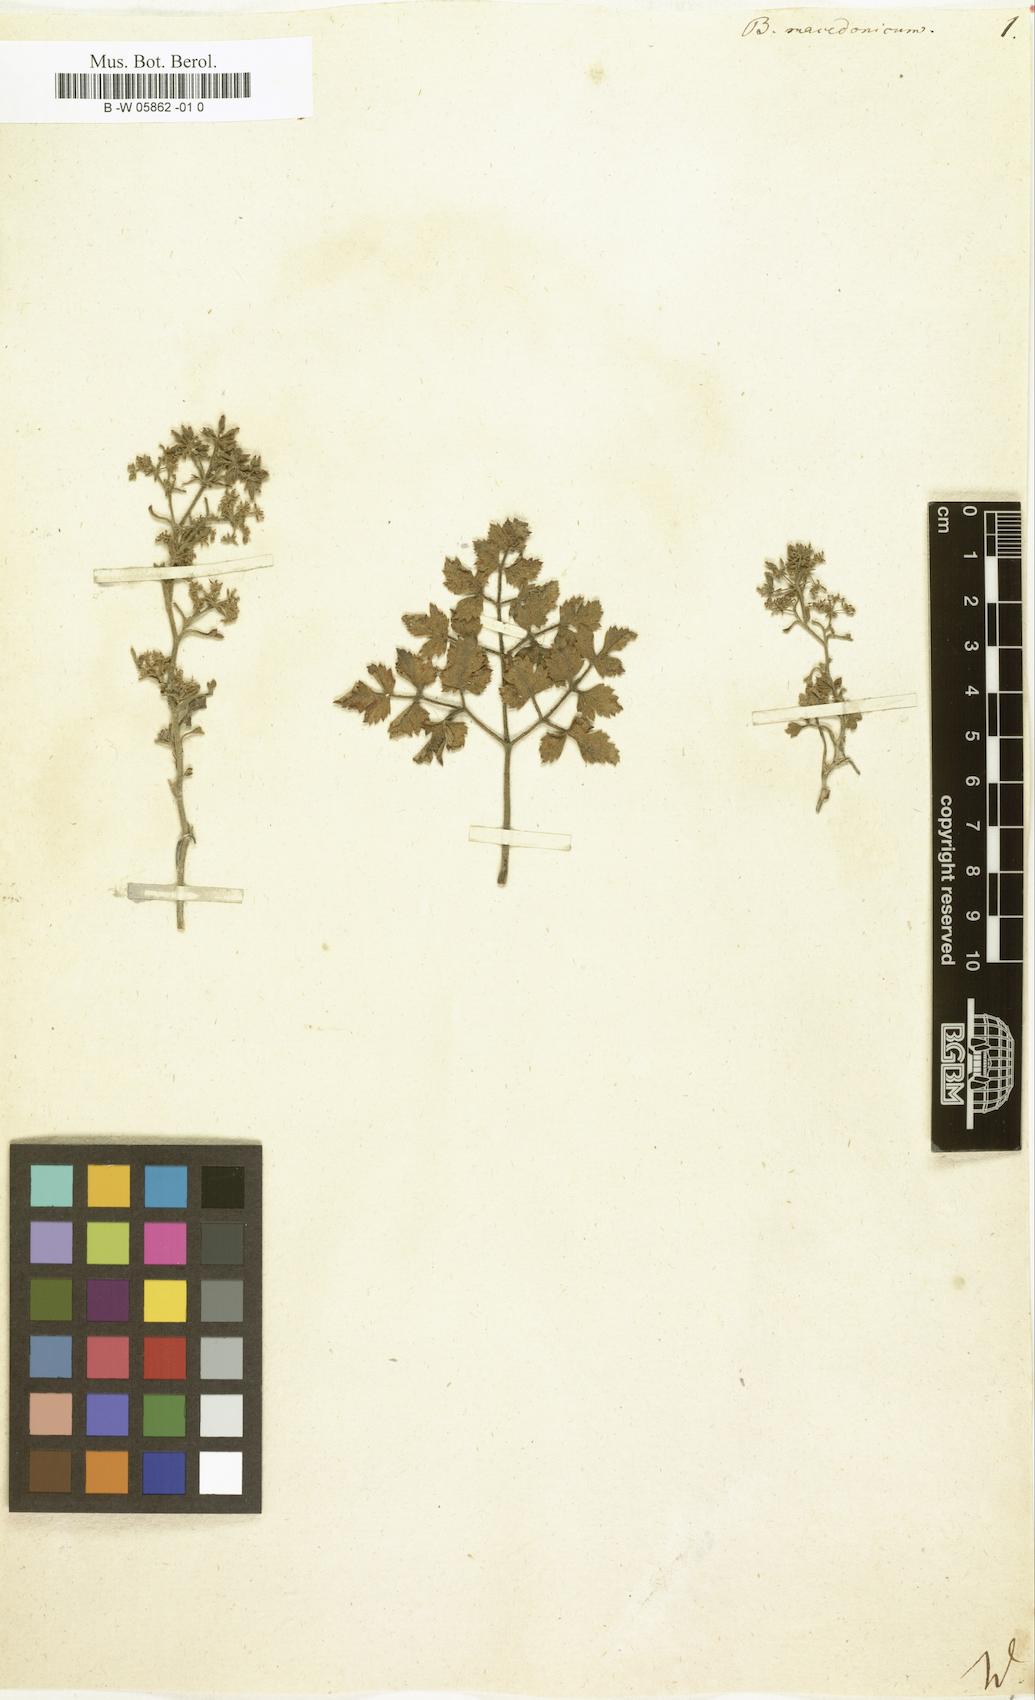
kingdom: Plantae
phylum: Tracheophyta
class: Magnoliopsida
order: Apiales
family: Apiaceae
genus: Bubon
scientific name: Bubon macedonicum
